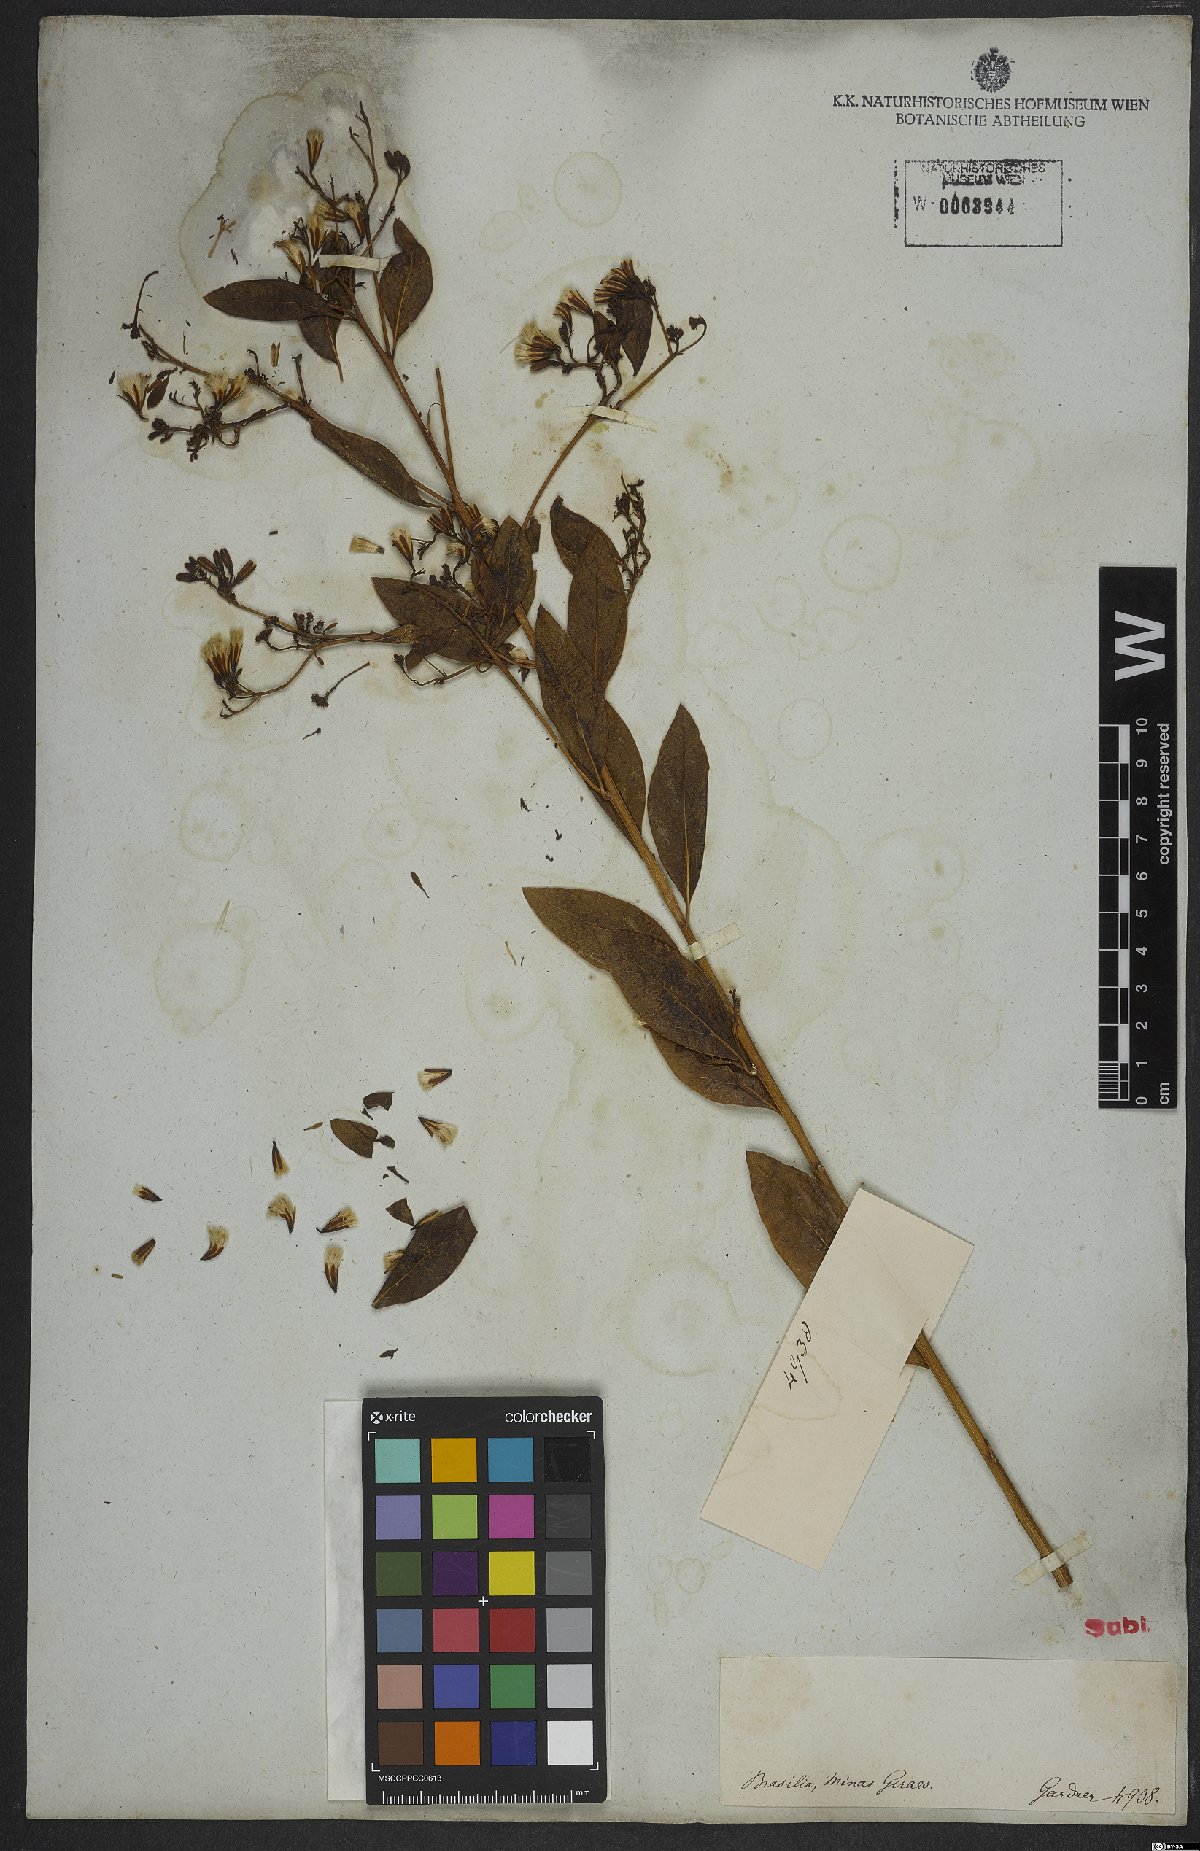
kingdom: Plantae
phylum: Tracheophyta
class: Magnoliopsida
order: Asterales
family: Asteraceae
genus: Trixis
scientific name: Trixis
